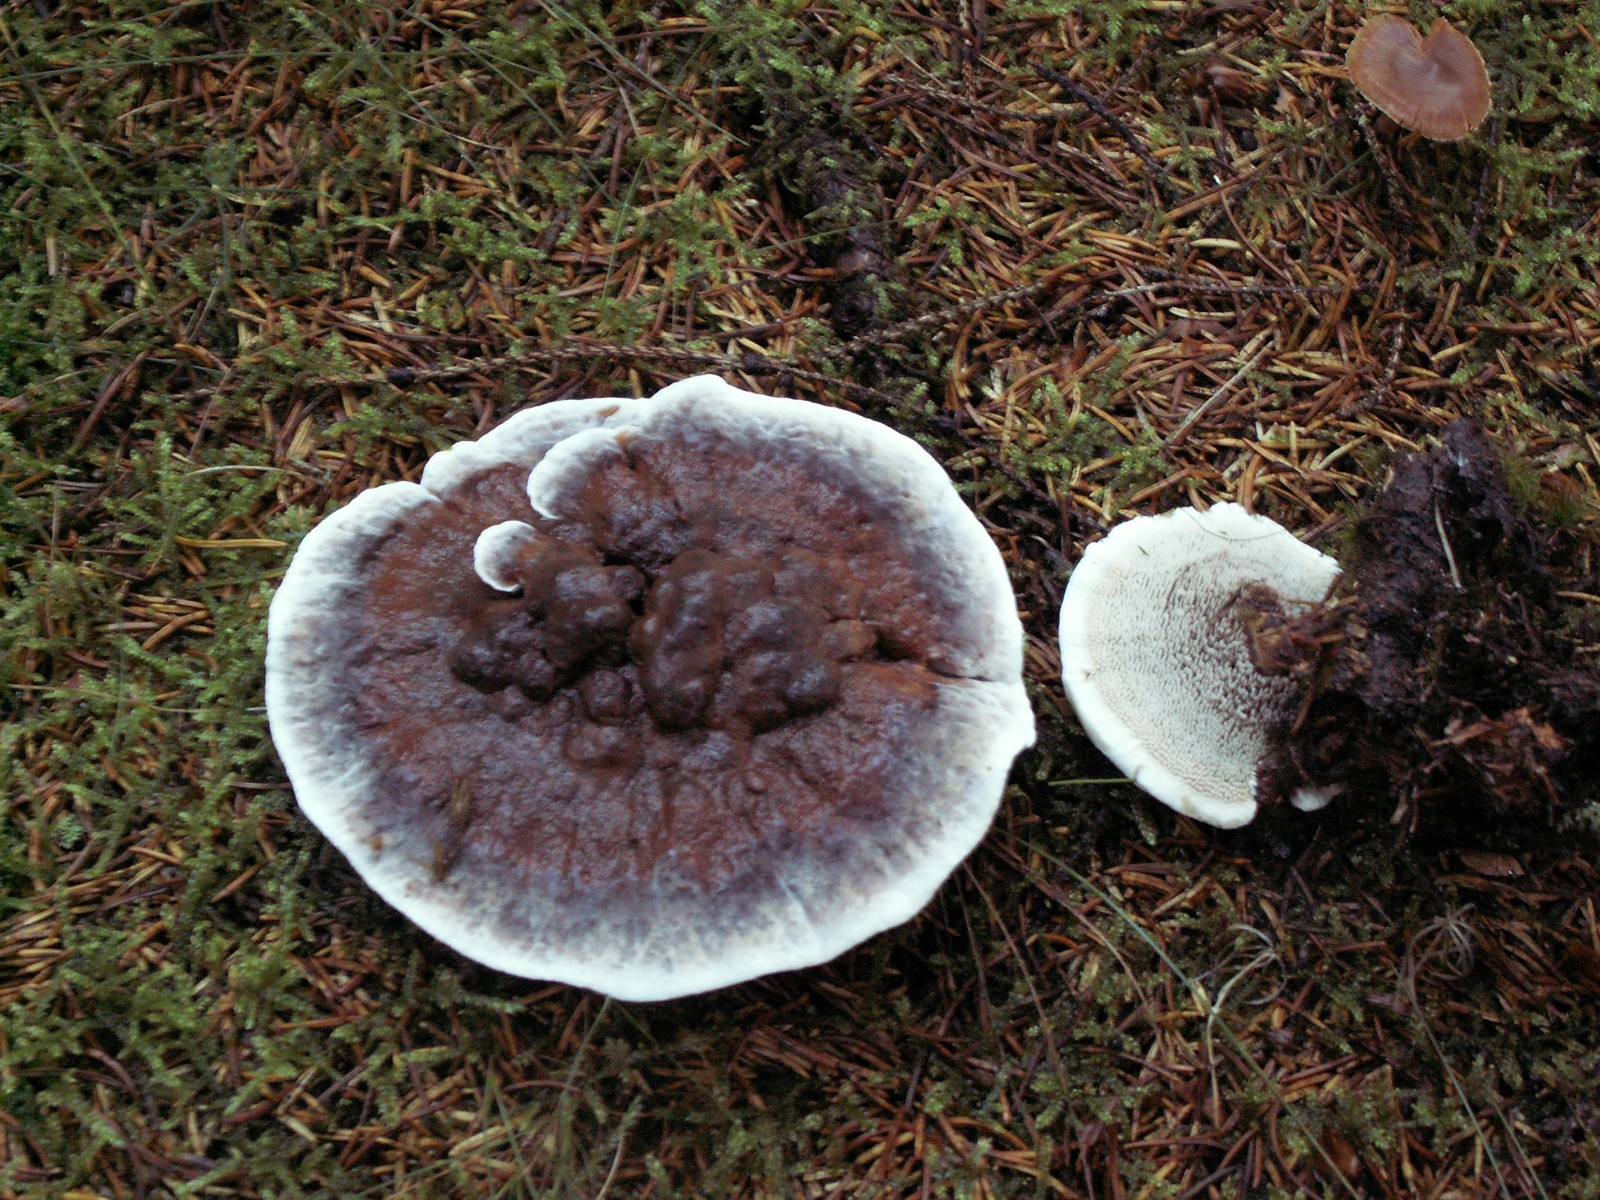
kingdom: Fungi
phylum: Basidiomycota
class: Agaricomycetes
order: Thelephorales
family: Bankeraceae
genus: Hydnellum
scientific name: Hydnellum aurantiacum
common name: orange korkpigsvamp
